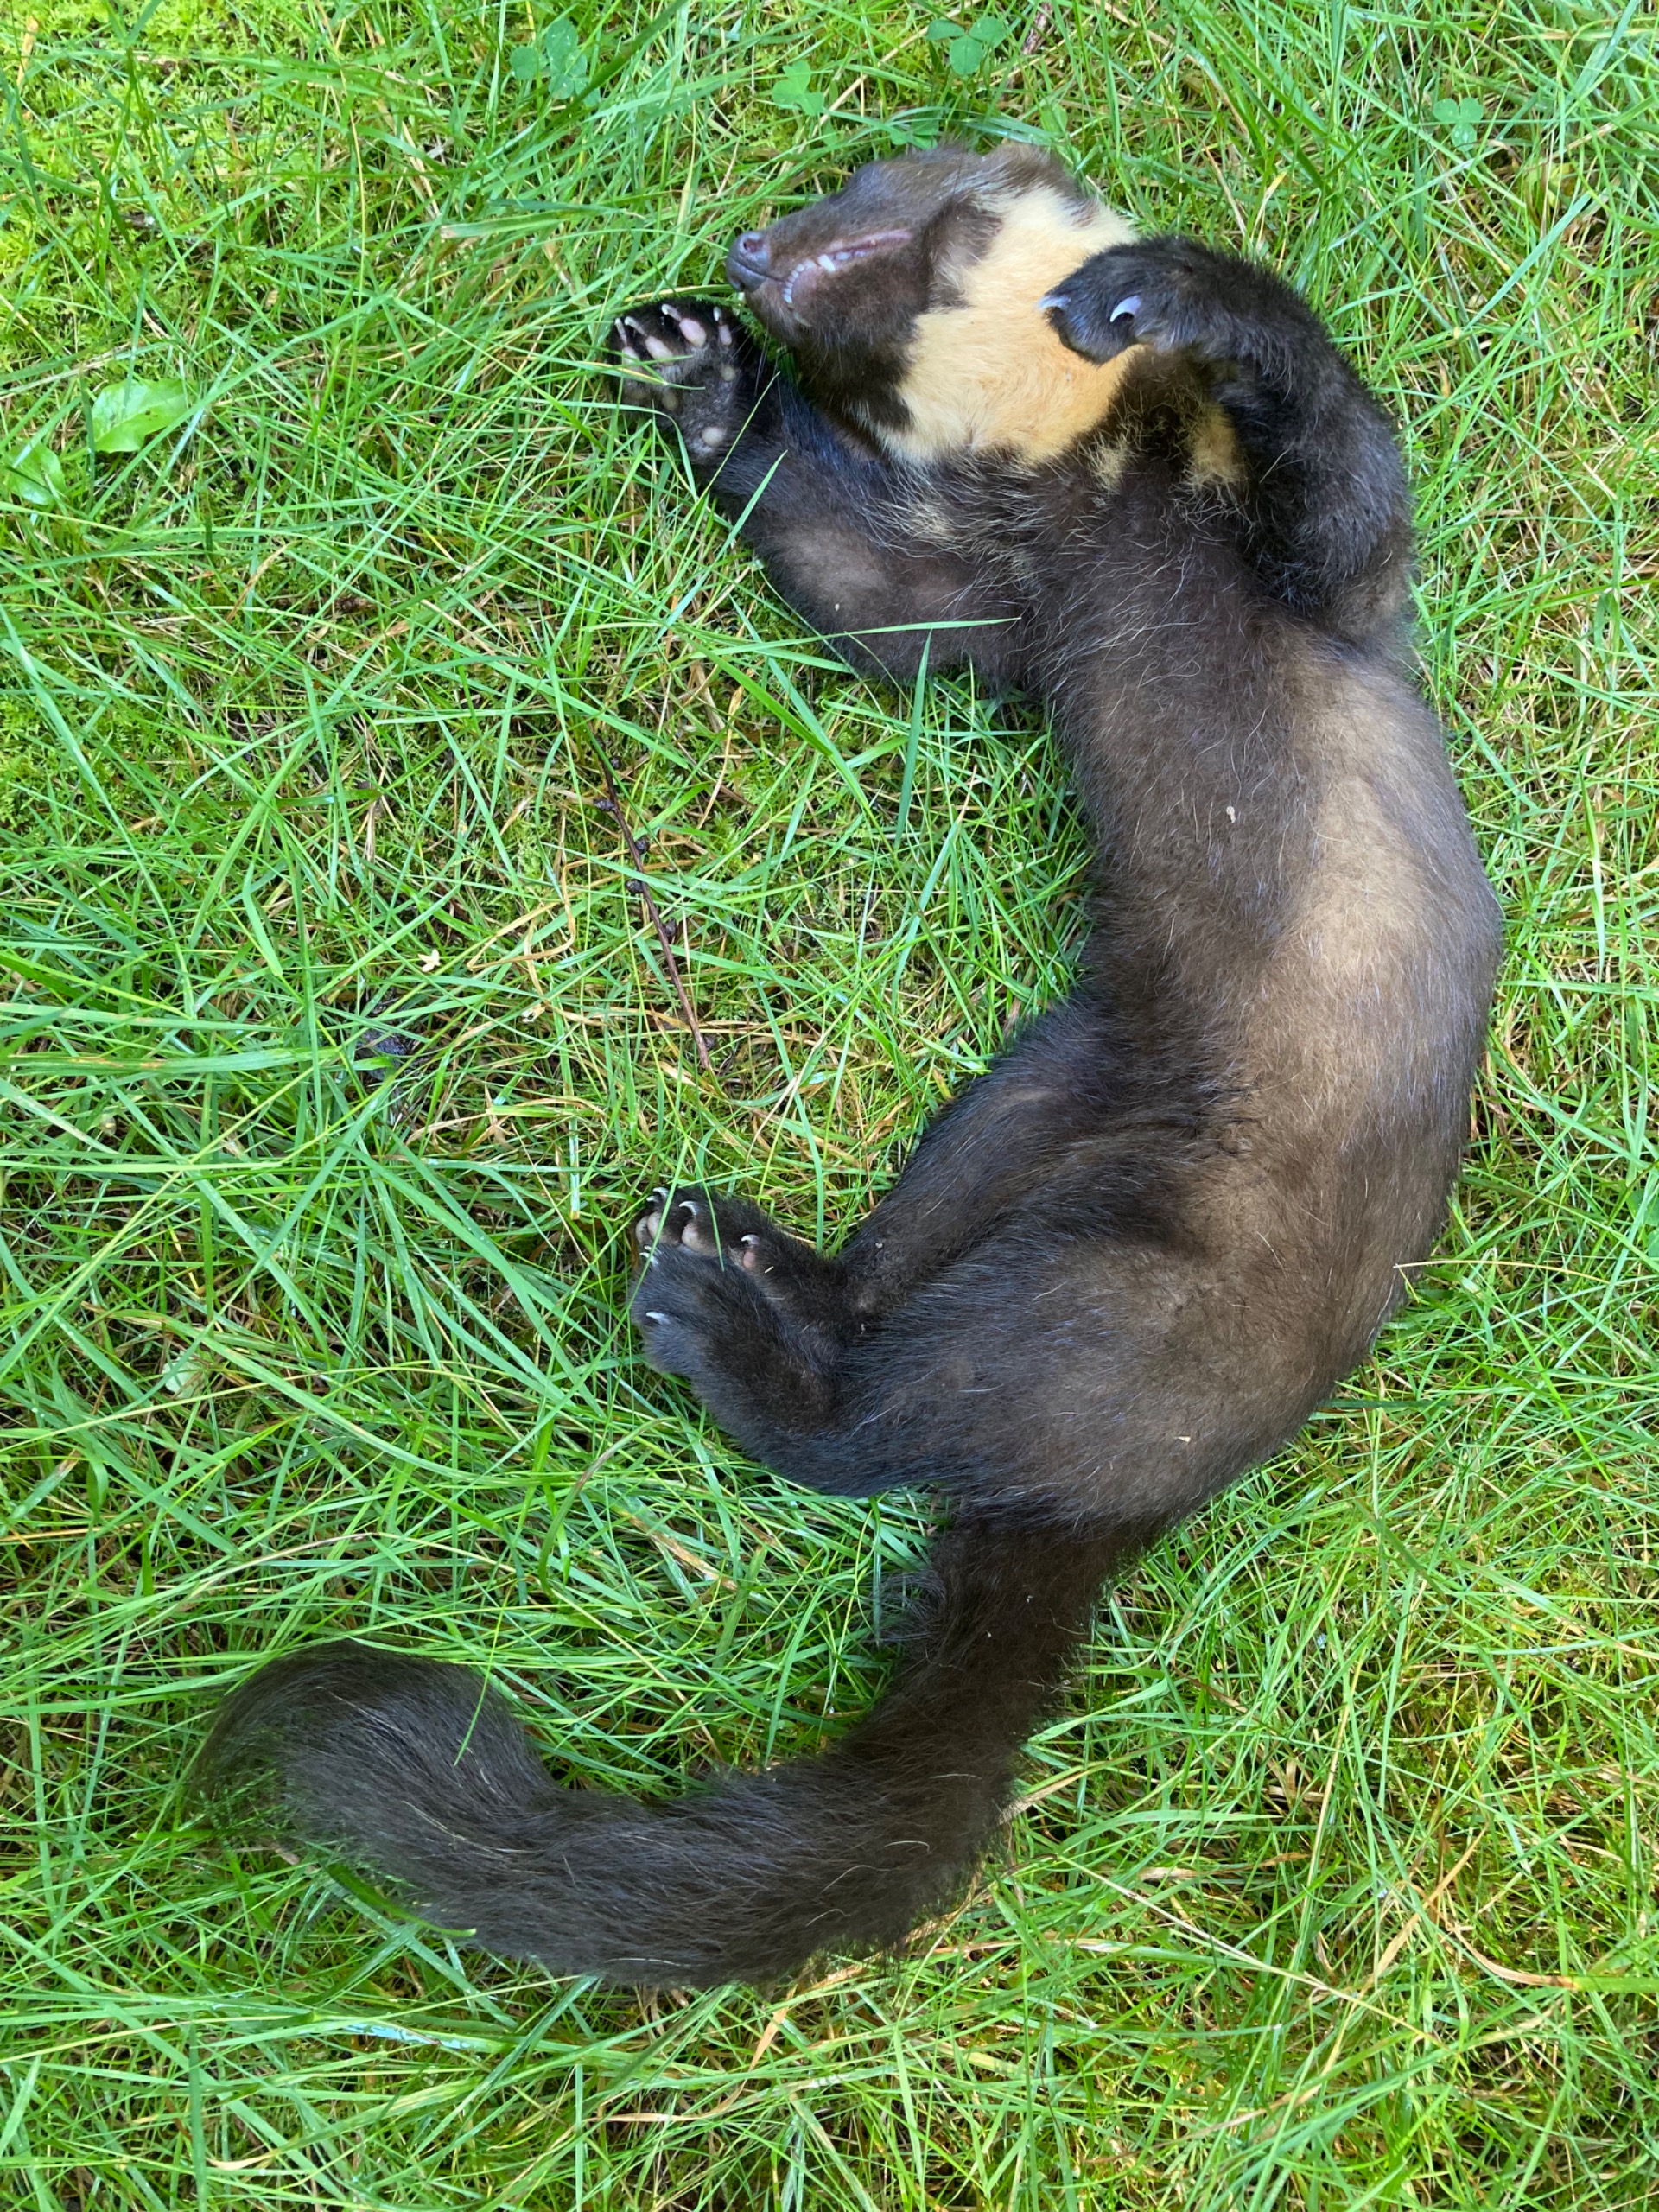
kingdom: Animalia
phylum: Chordata
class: Mammalia
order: Carnivora
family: Mustelidae
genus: Martes
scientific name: Martes martes
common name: Skovmår
